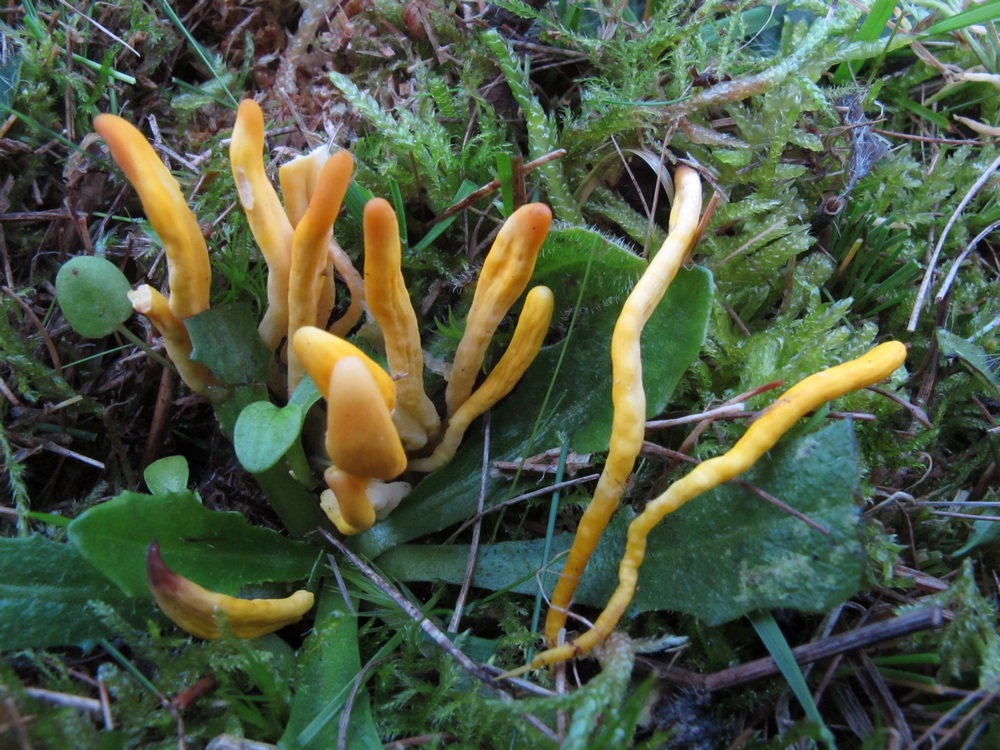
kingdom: Fungi
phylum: Basidiomycota
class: Agaricomycetes
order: Agaricales
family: Clavariaceae
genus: Clavulinopsis
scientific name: Clavulinopsis laeticolor
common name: flamme-køllesvamp
